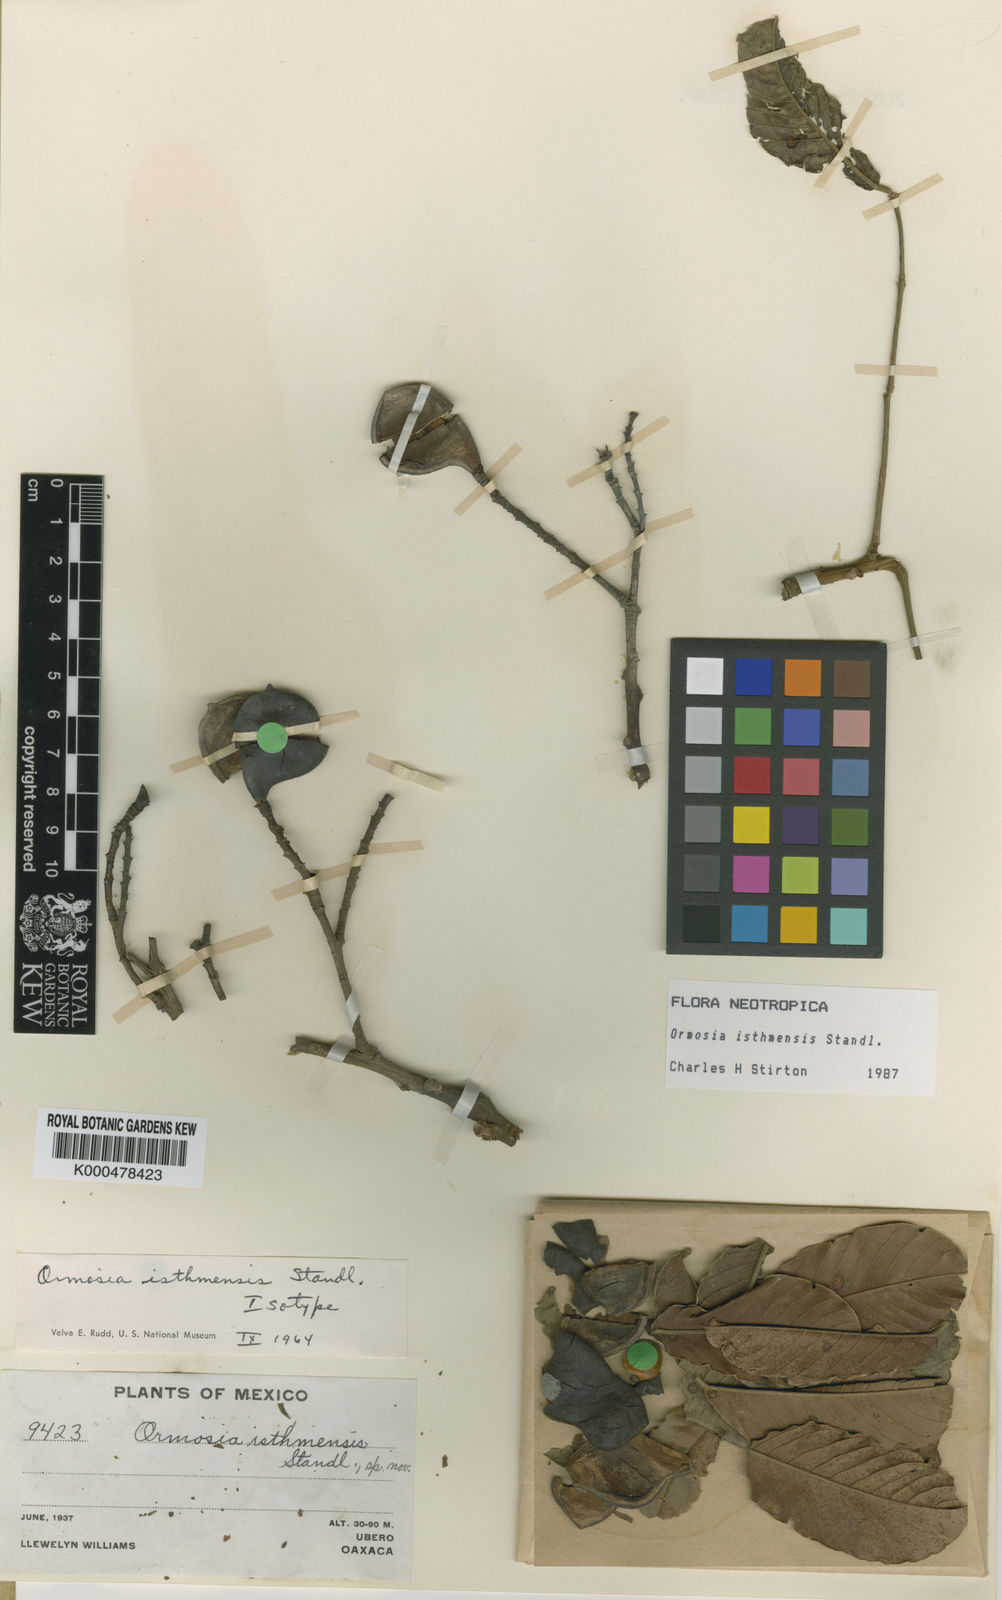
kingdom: Plantae
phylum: Tracheophyta
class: Magnoliopsida
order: Fabales
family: Fabaceae
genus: Ormosia
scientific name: Ormosia isthmensis
